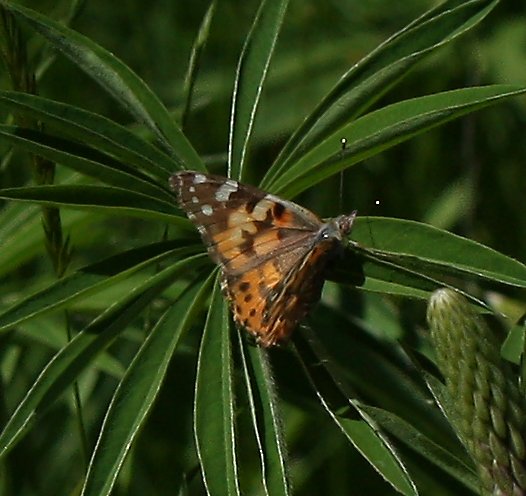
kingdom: Animalia
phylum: Arthropoda
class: Insecta
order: Lepidoptera
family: Nymphalidae
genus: Vanessa
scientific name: Vanessa cardui
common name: Painted Lady
